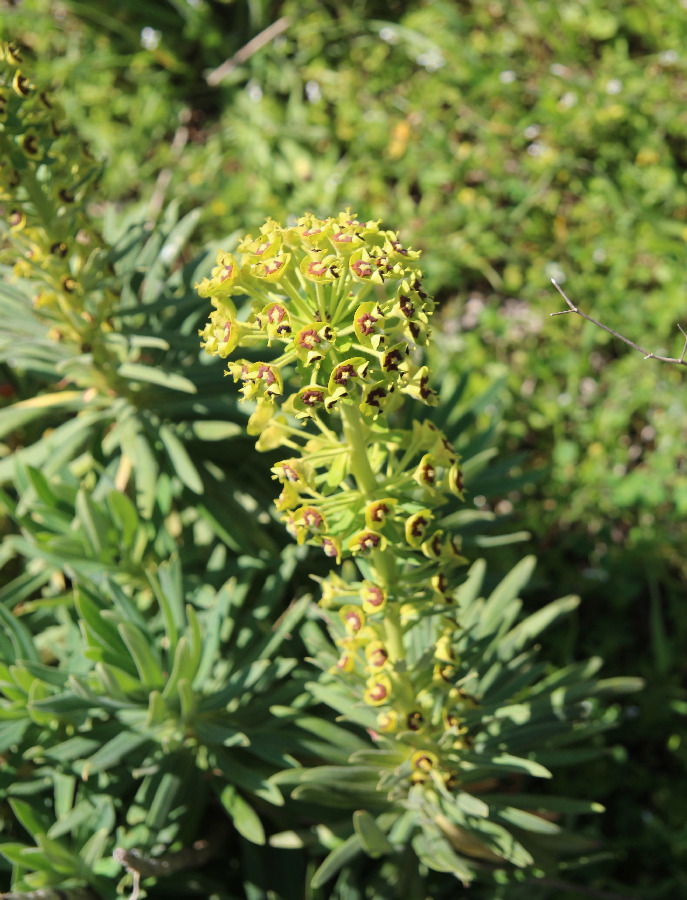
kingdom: Plantae
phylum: Tracheophyta
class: Magnoliopsida
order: Malpighiales
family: Euphorbiaceae
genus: Euphorbia
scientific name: Euphorbia characias
